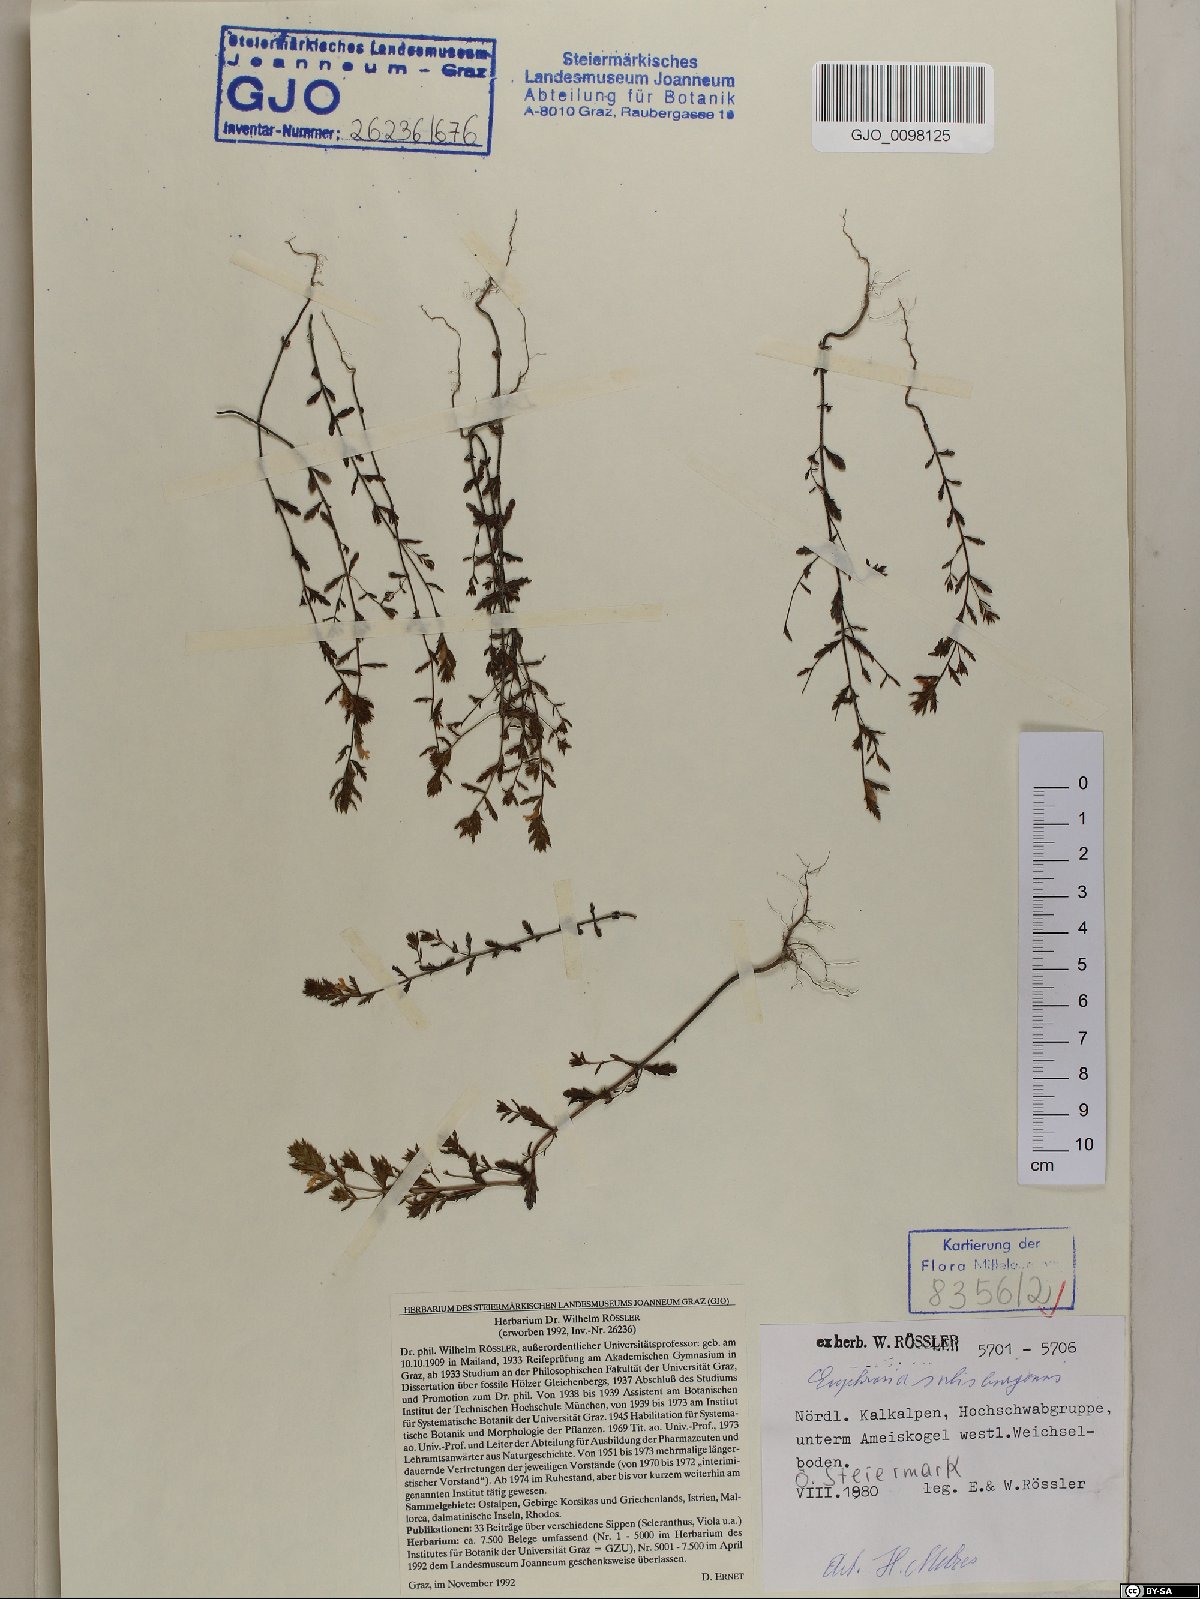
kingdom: Plantae
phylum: Tracheophyta
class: Magnoliopsida
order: Lamiales
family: Orobanchaceae
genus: Euphrasia
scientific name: Euphrasia salisburgensis
